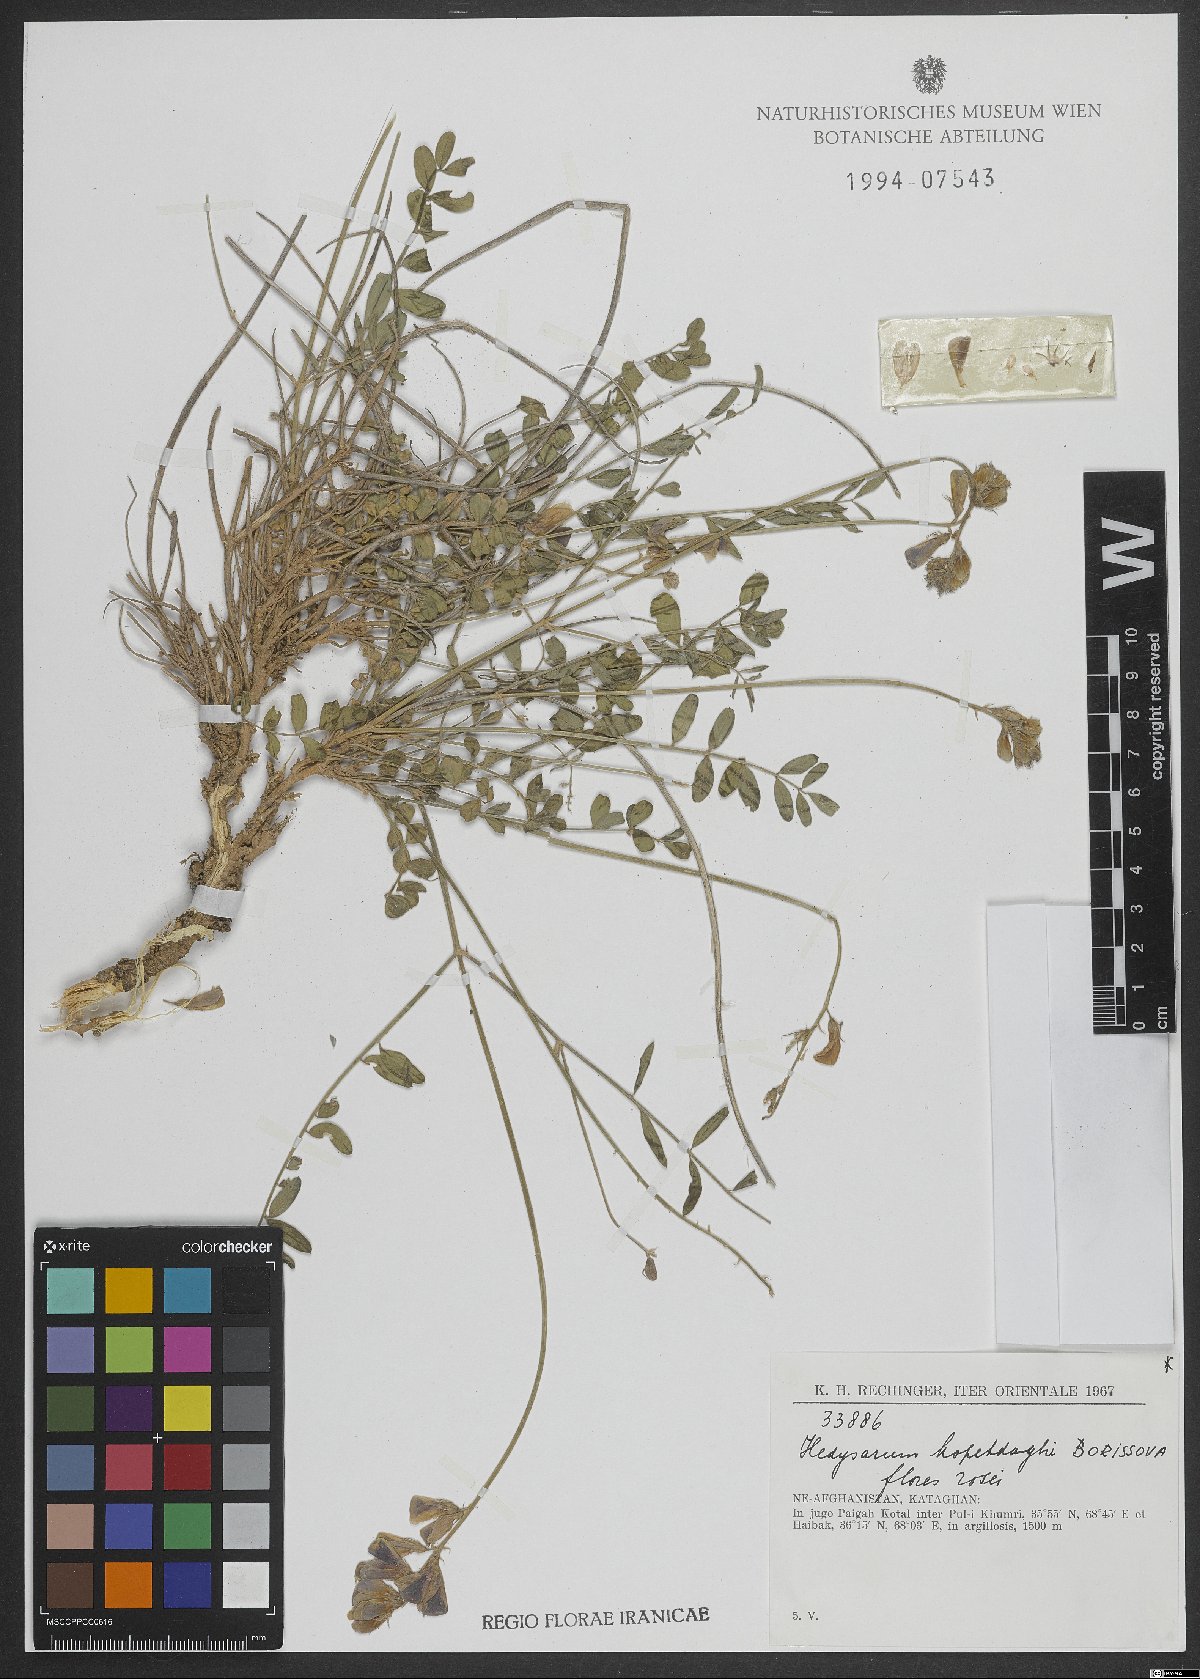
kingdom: Plantae
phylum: Tracheophyta
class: Magnoliopsida
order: Fabales
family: Fabaceae
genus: Hedysarum
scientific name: Hedysarum kopetdaghi
